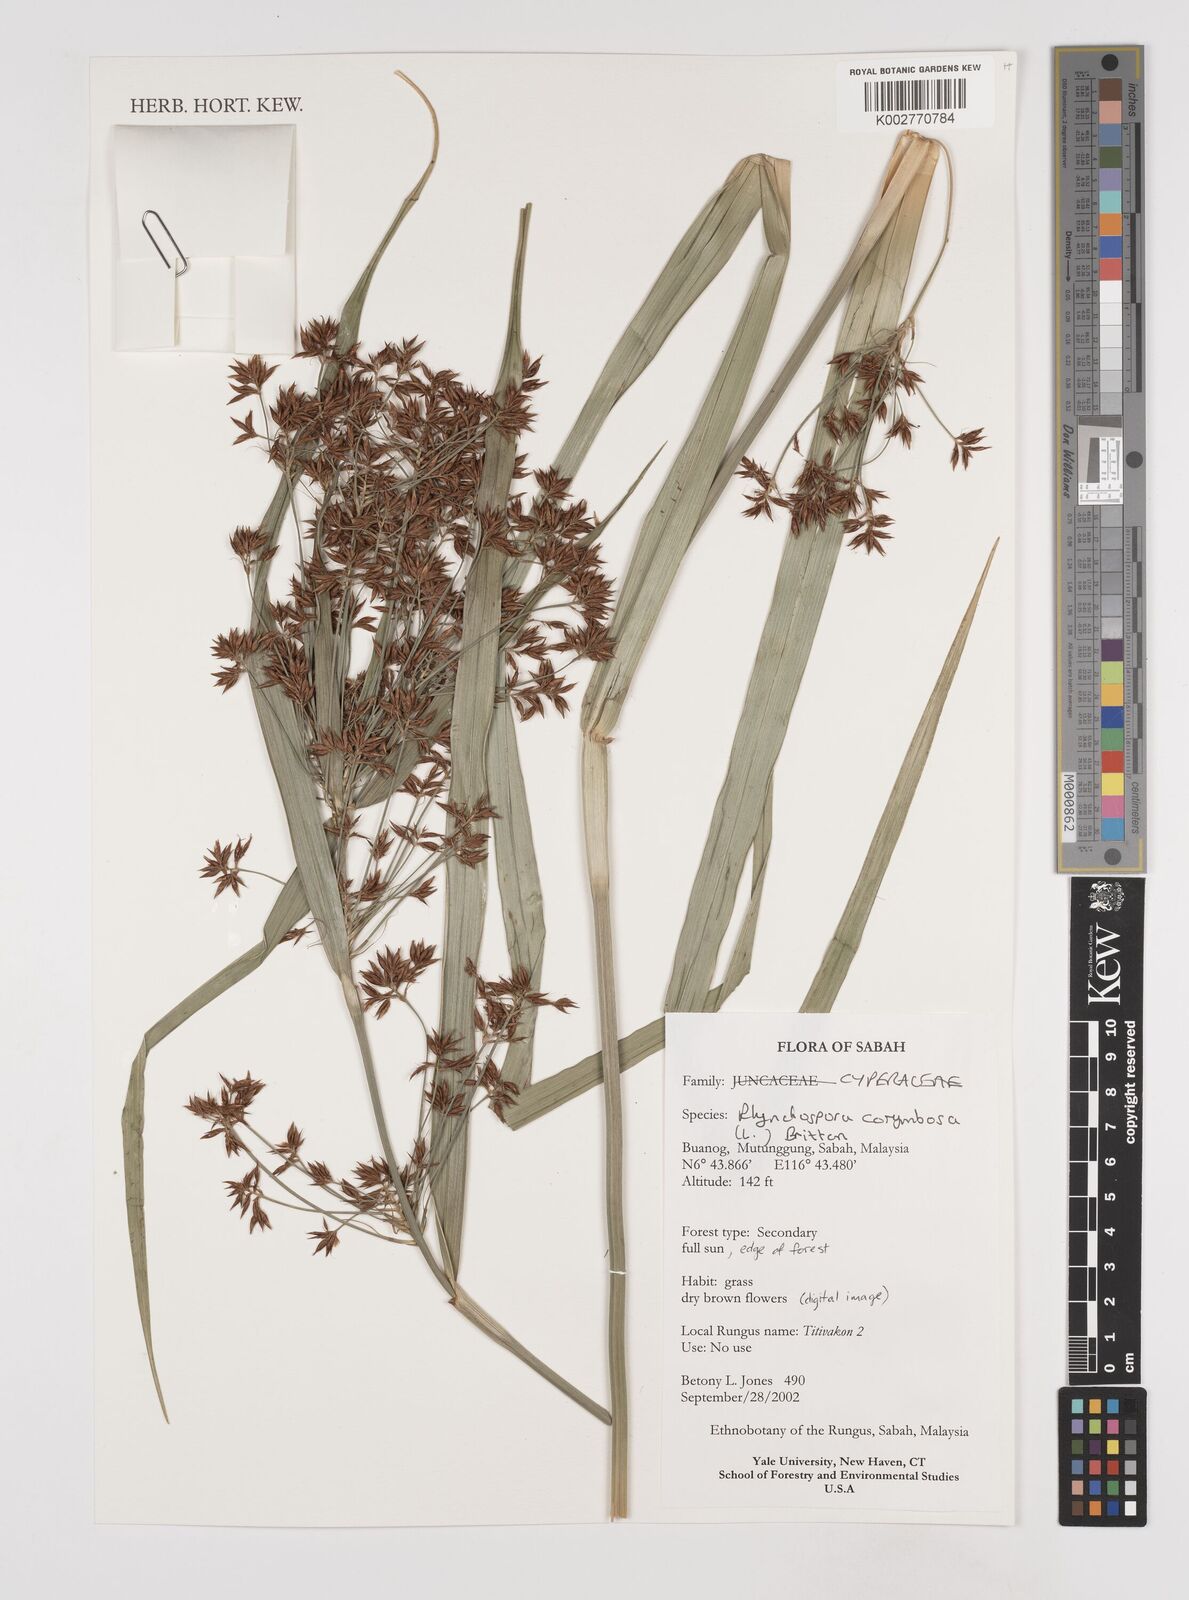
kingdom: Plantae
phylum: Tracheophyta
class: Liliopsida
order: Poales
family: Cyperaceae
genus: Rhynchospora
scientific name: Rhynchospora corymbosa
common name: Golden beak sedge
